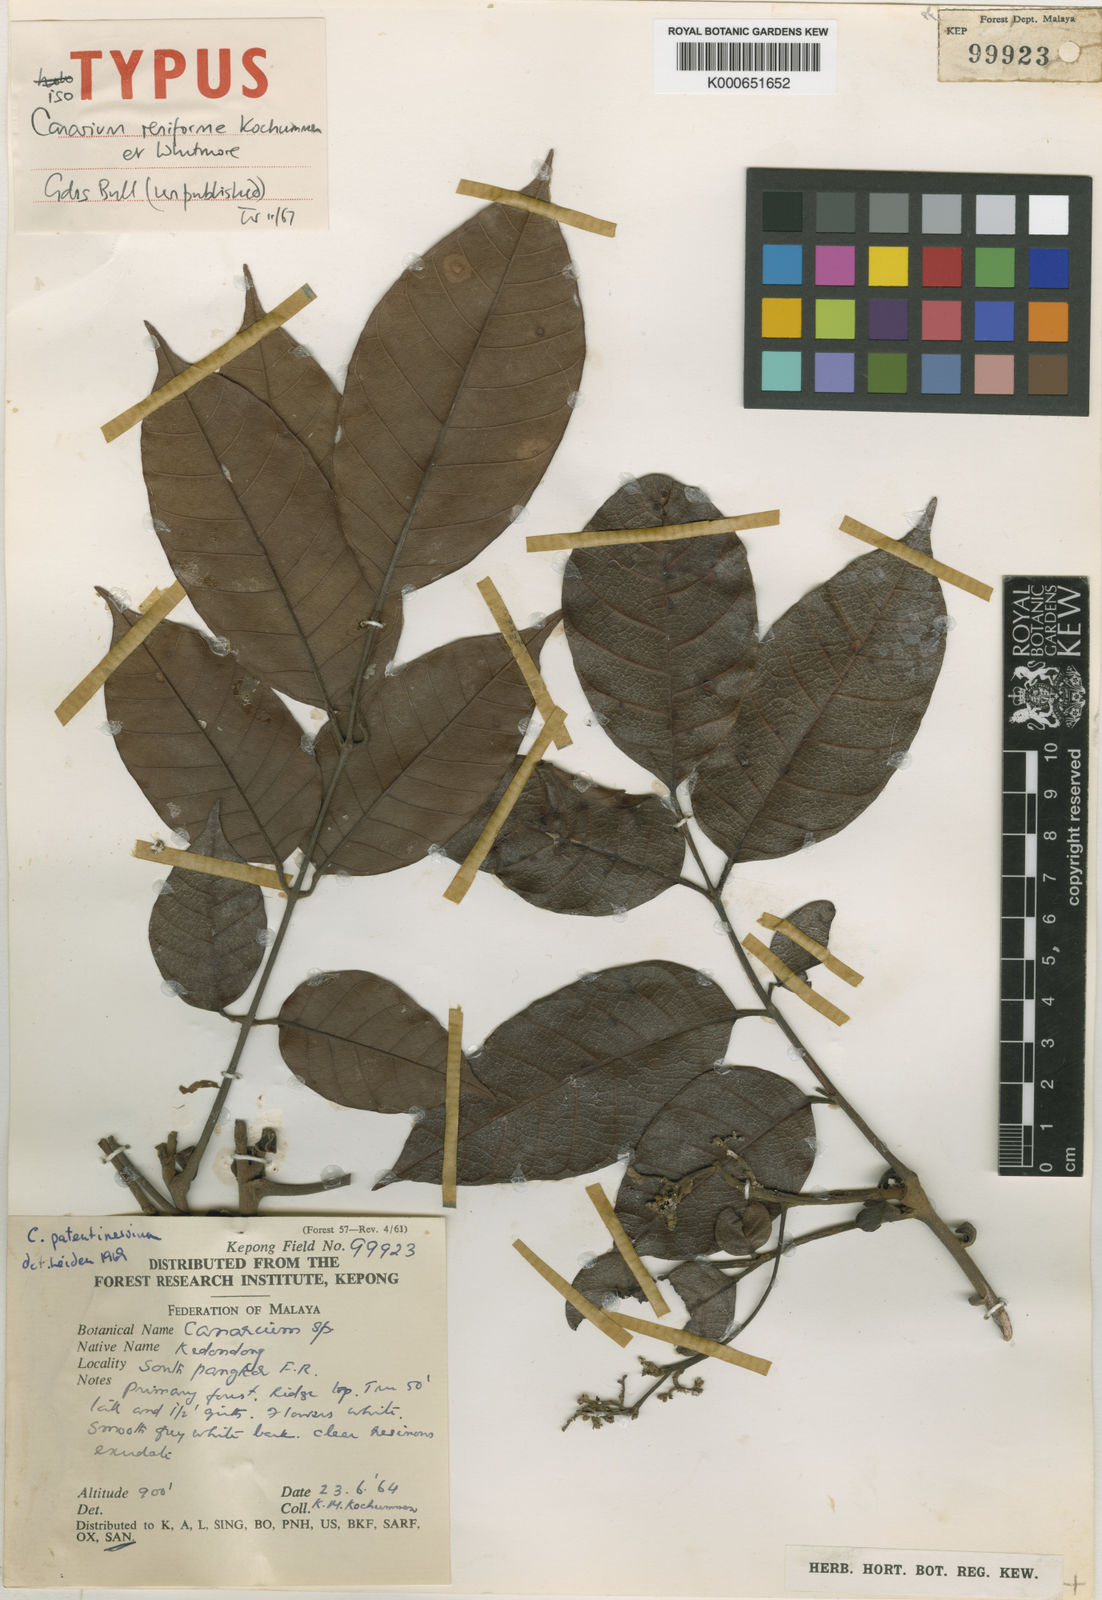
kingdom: Plantae
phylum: Tracheophyta
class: Magnoliopsida
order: Sapindales
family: Burseraceae
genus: Canarium
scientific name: Canarium patentinervium
